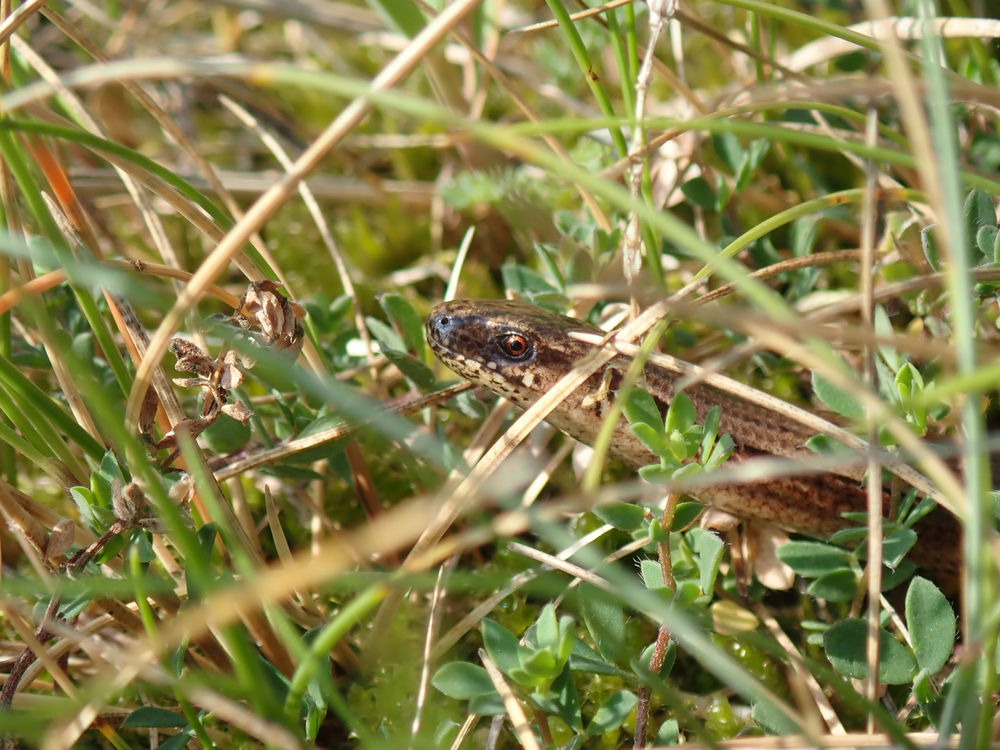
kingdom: Animalia
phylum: Chordata
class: Squamata
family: Anguidae
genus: Anguis
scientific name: Anguis fragilis
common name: Stålorm
